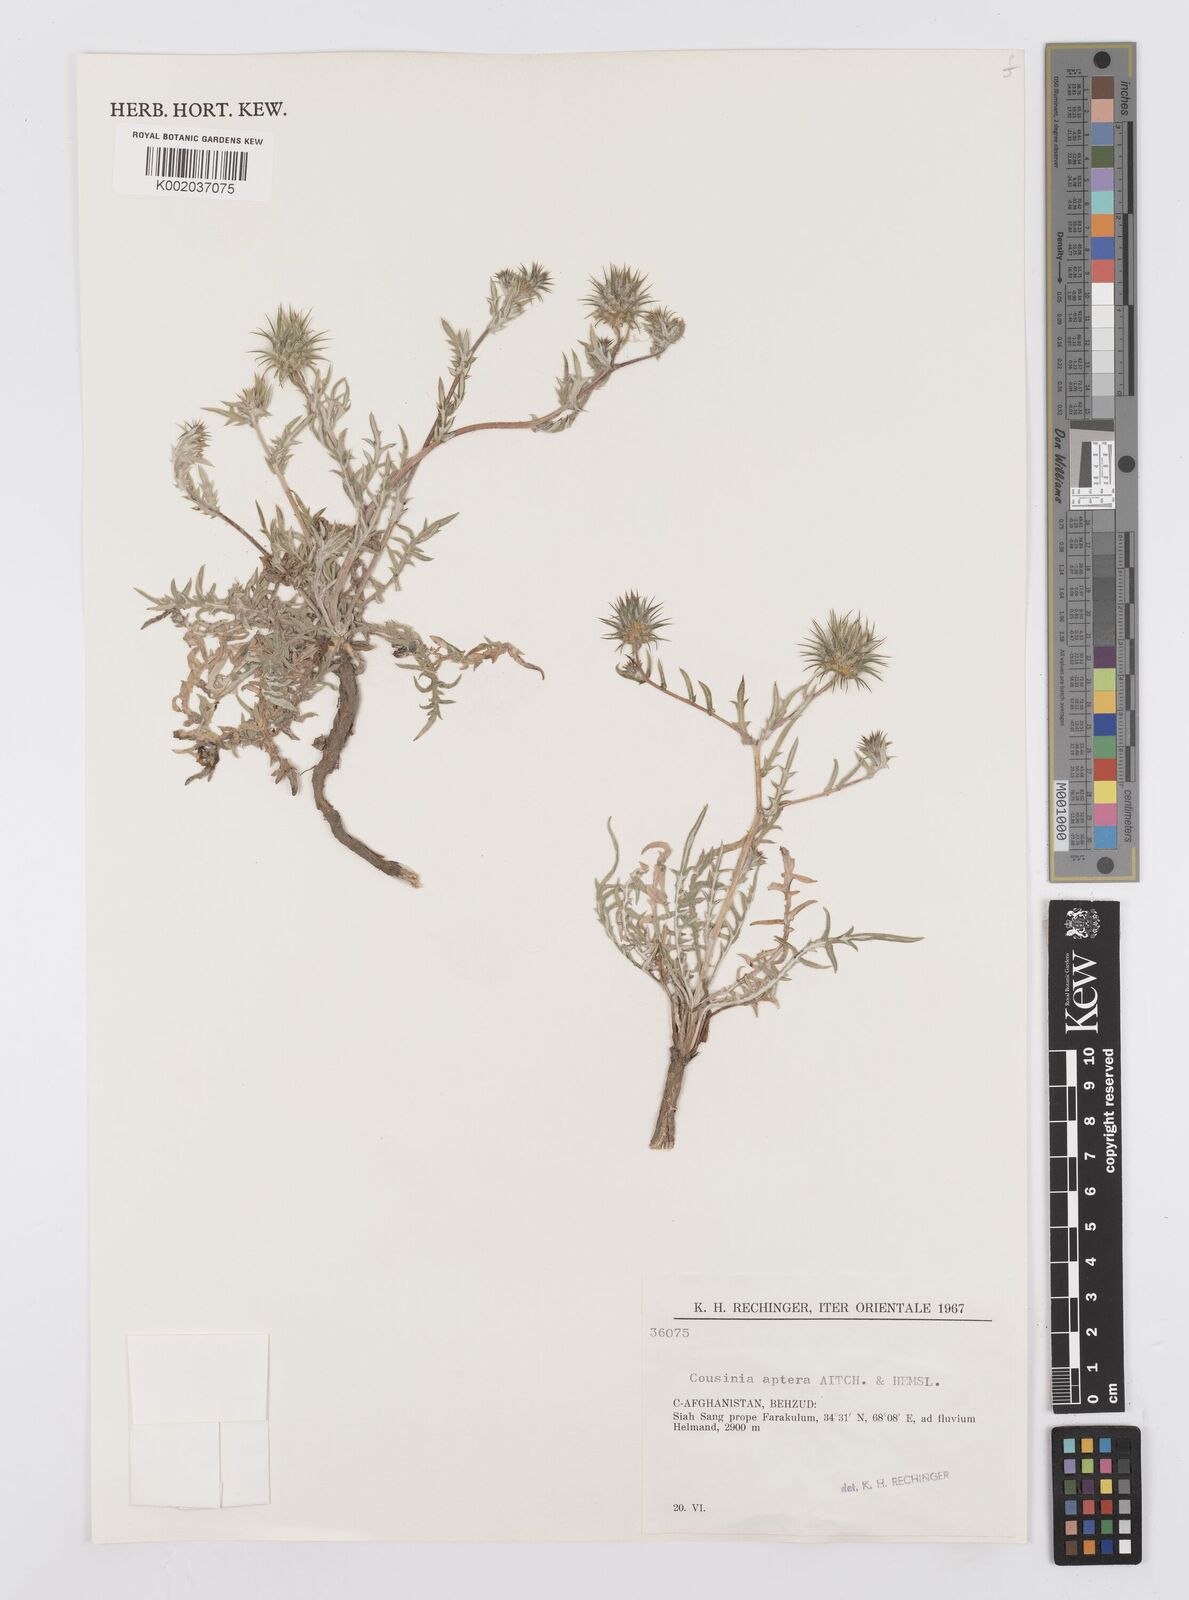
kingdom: Plantae
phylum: Tracheophyta
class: Magnoliopsida
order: Asterales
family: Asteraceae
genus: Cousinia
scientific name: Cousinia aptera
